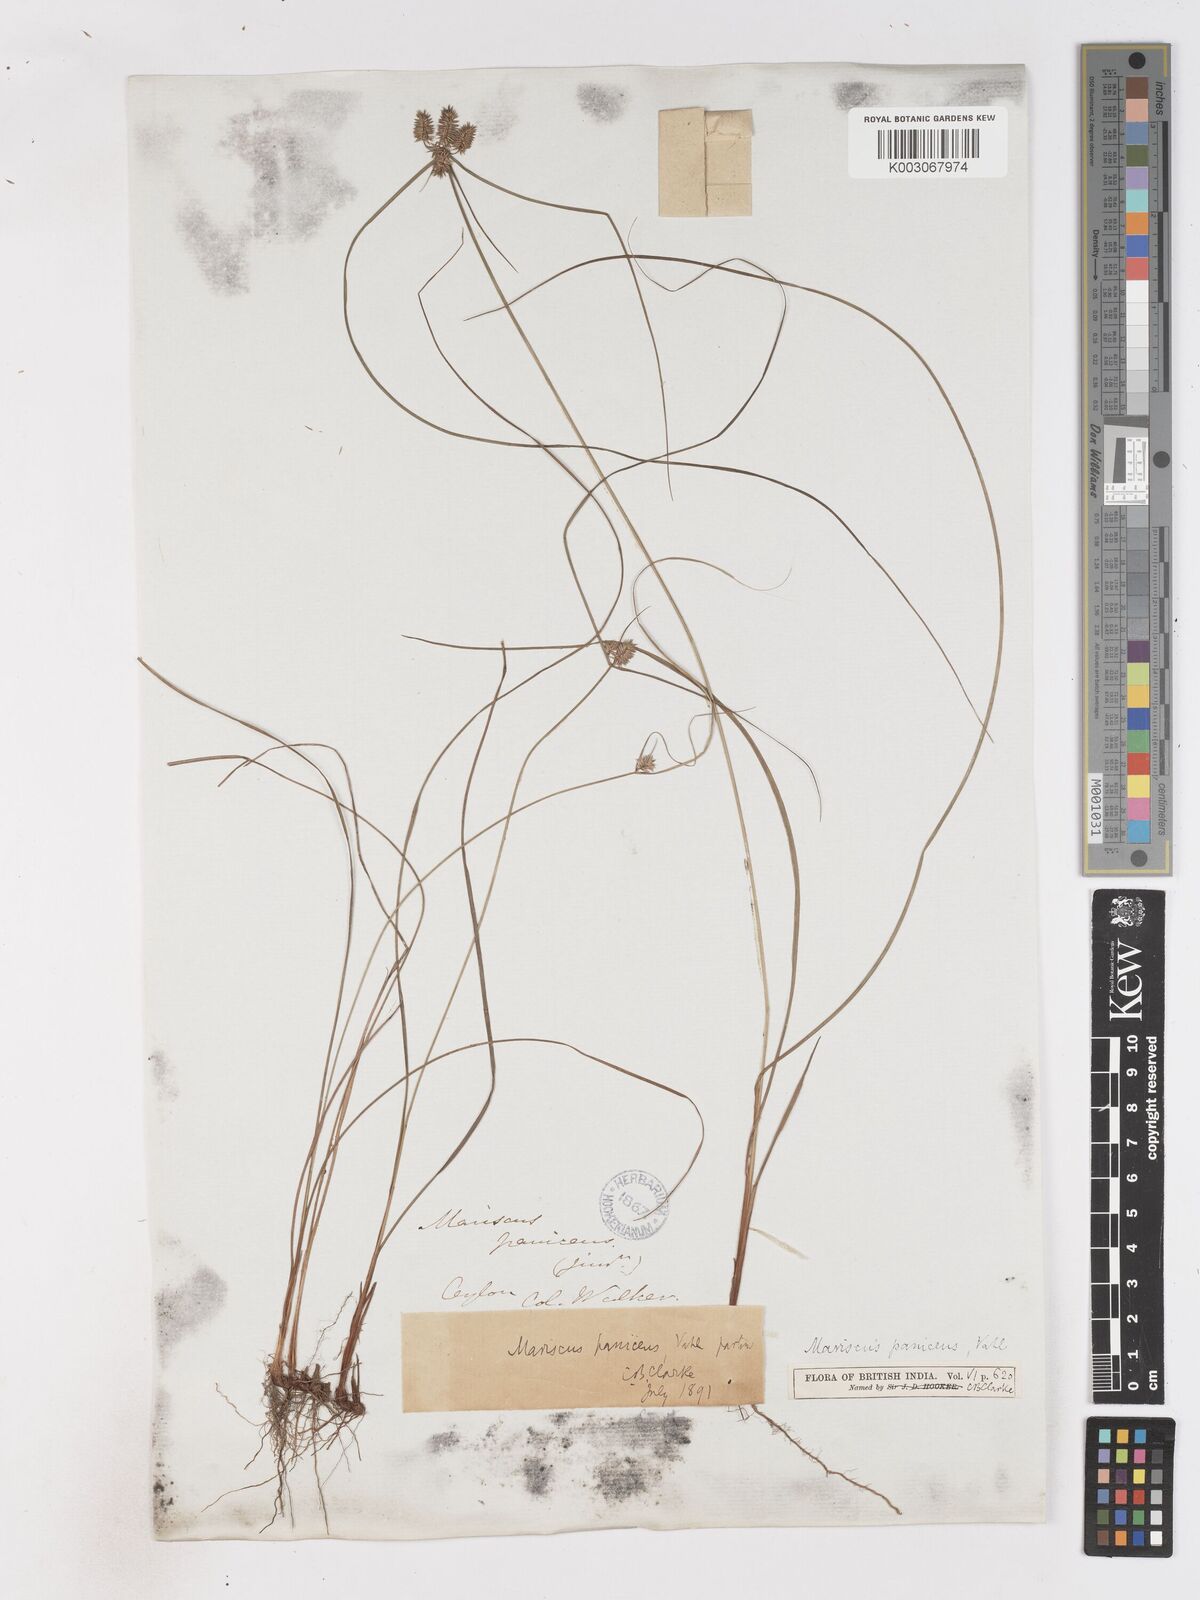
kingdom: Plantae
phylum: Tracheophyta
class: Liliopsida
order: Poales
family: Cyperaceae
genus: Cyperus
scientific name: Cyperus paniceus
